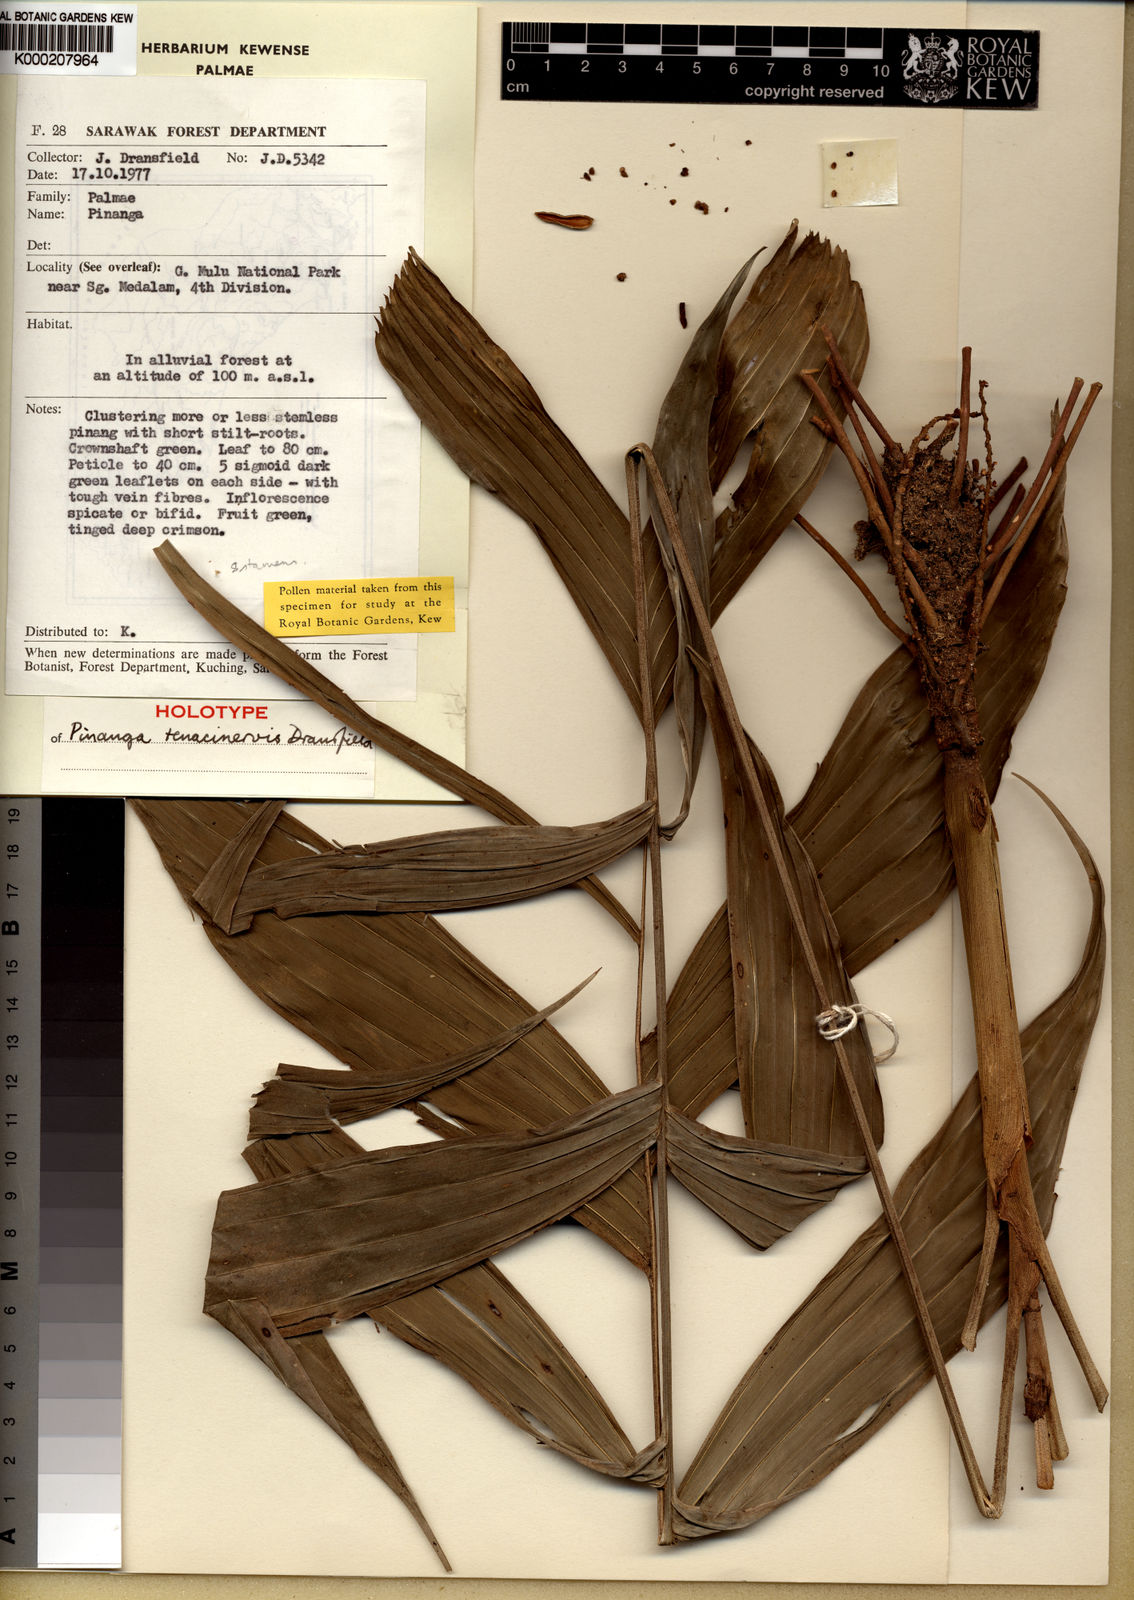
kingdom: Plantae
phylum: Tracheophyta
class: Liliopsida
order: Arecales
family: Arecaceae
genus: Pinanga
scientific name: Pinanga tenacinervis
